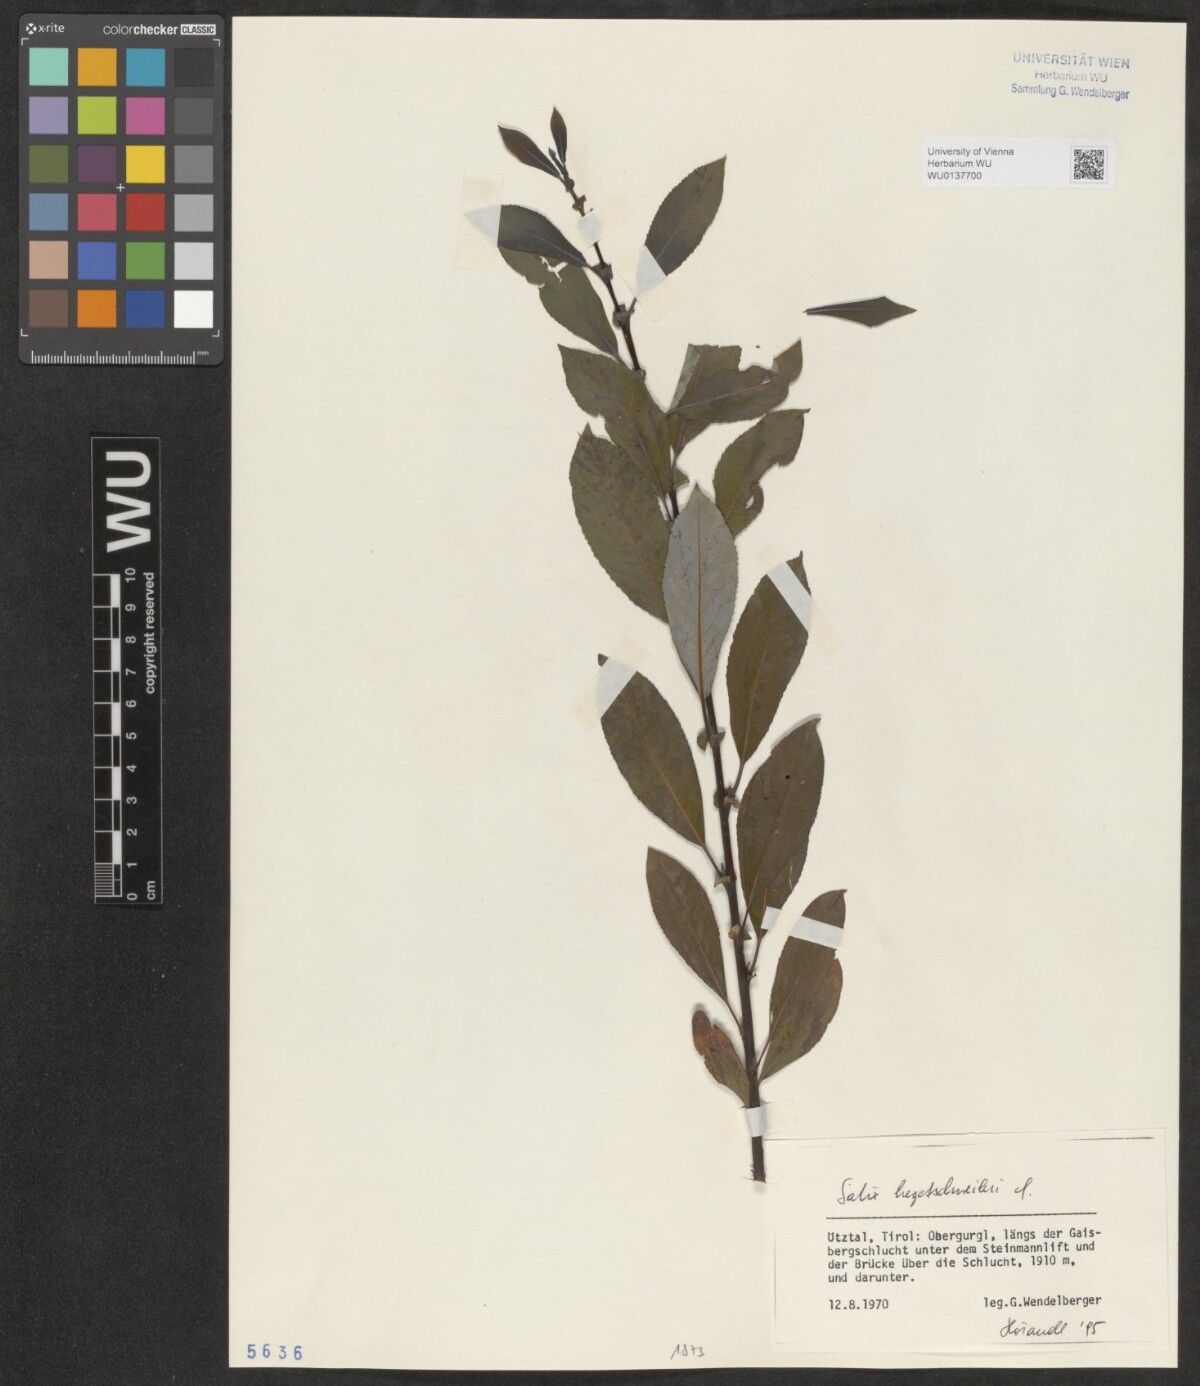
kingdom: Plantae
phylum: Tracheophyta
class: Magnoliopsida
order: Malpighiales
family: Salicaceae
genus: Salix
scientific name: Salix hegetschweileri
